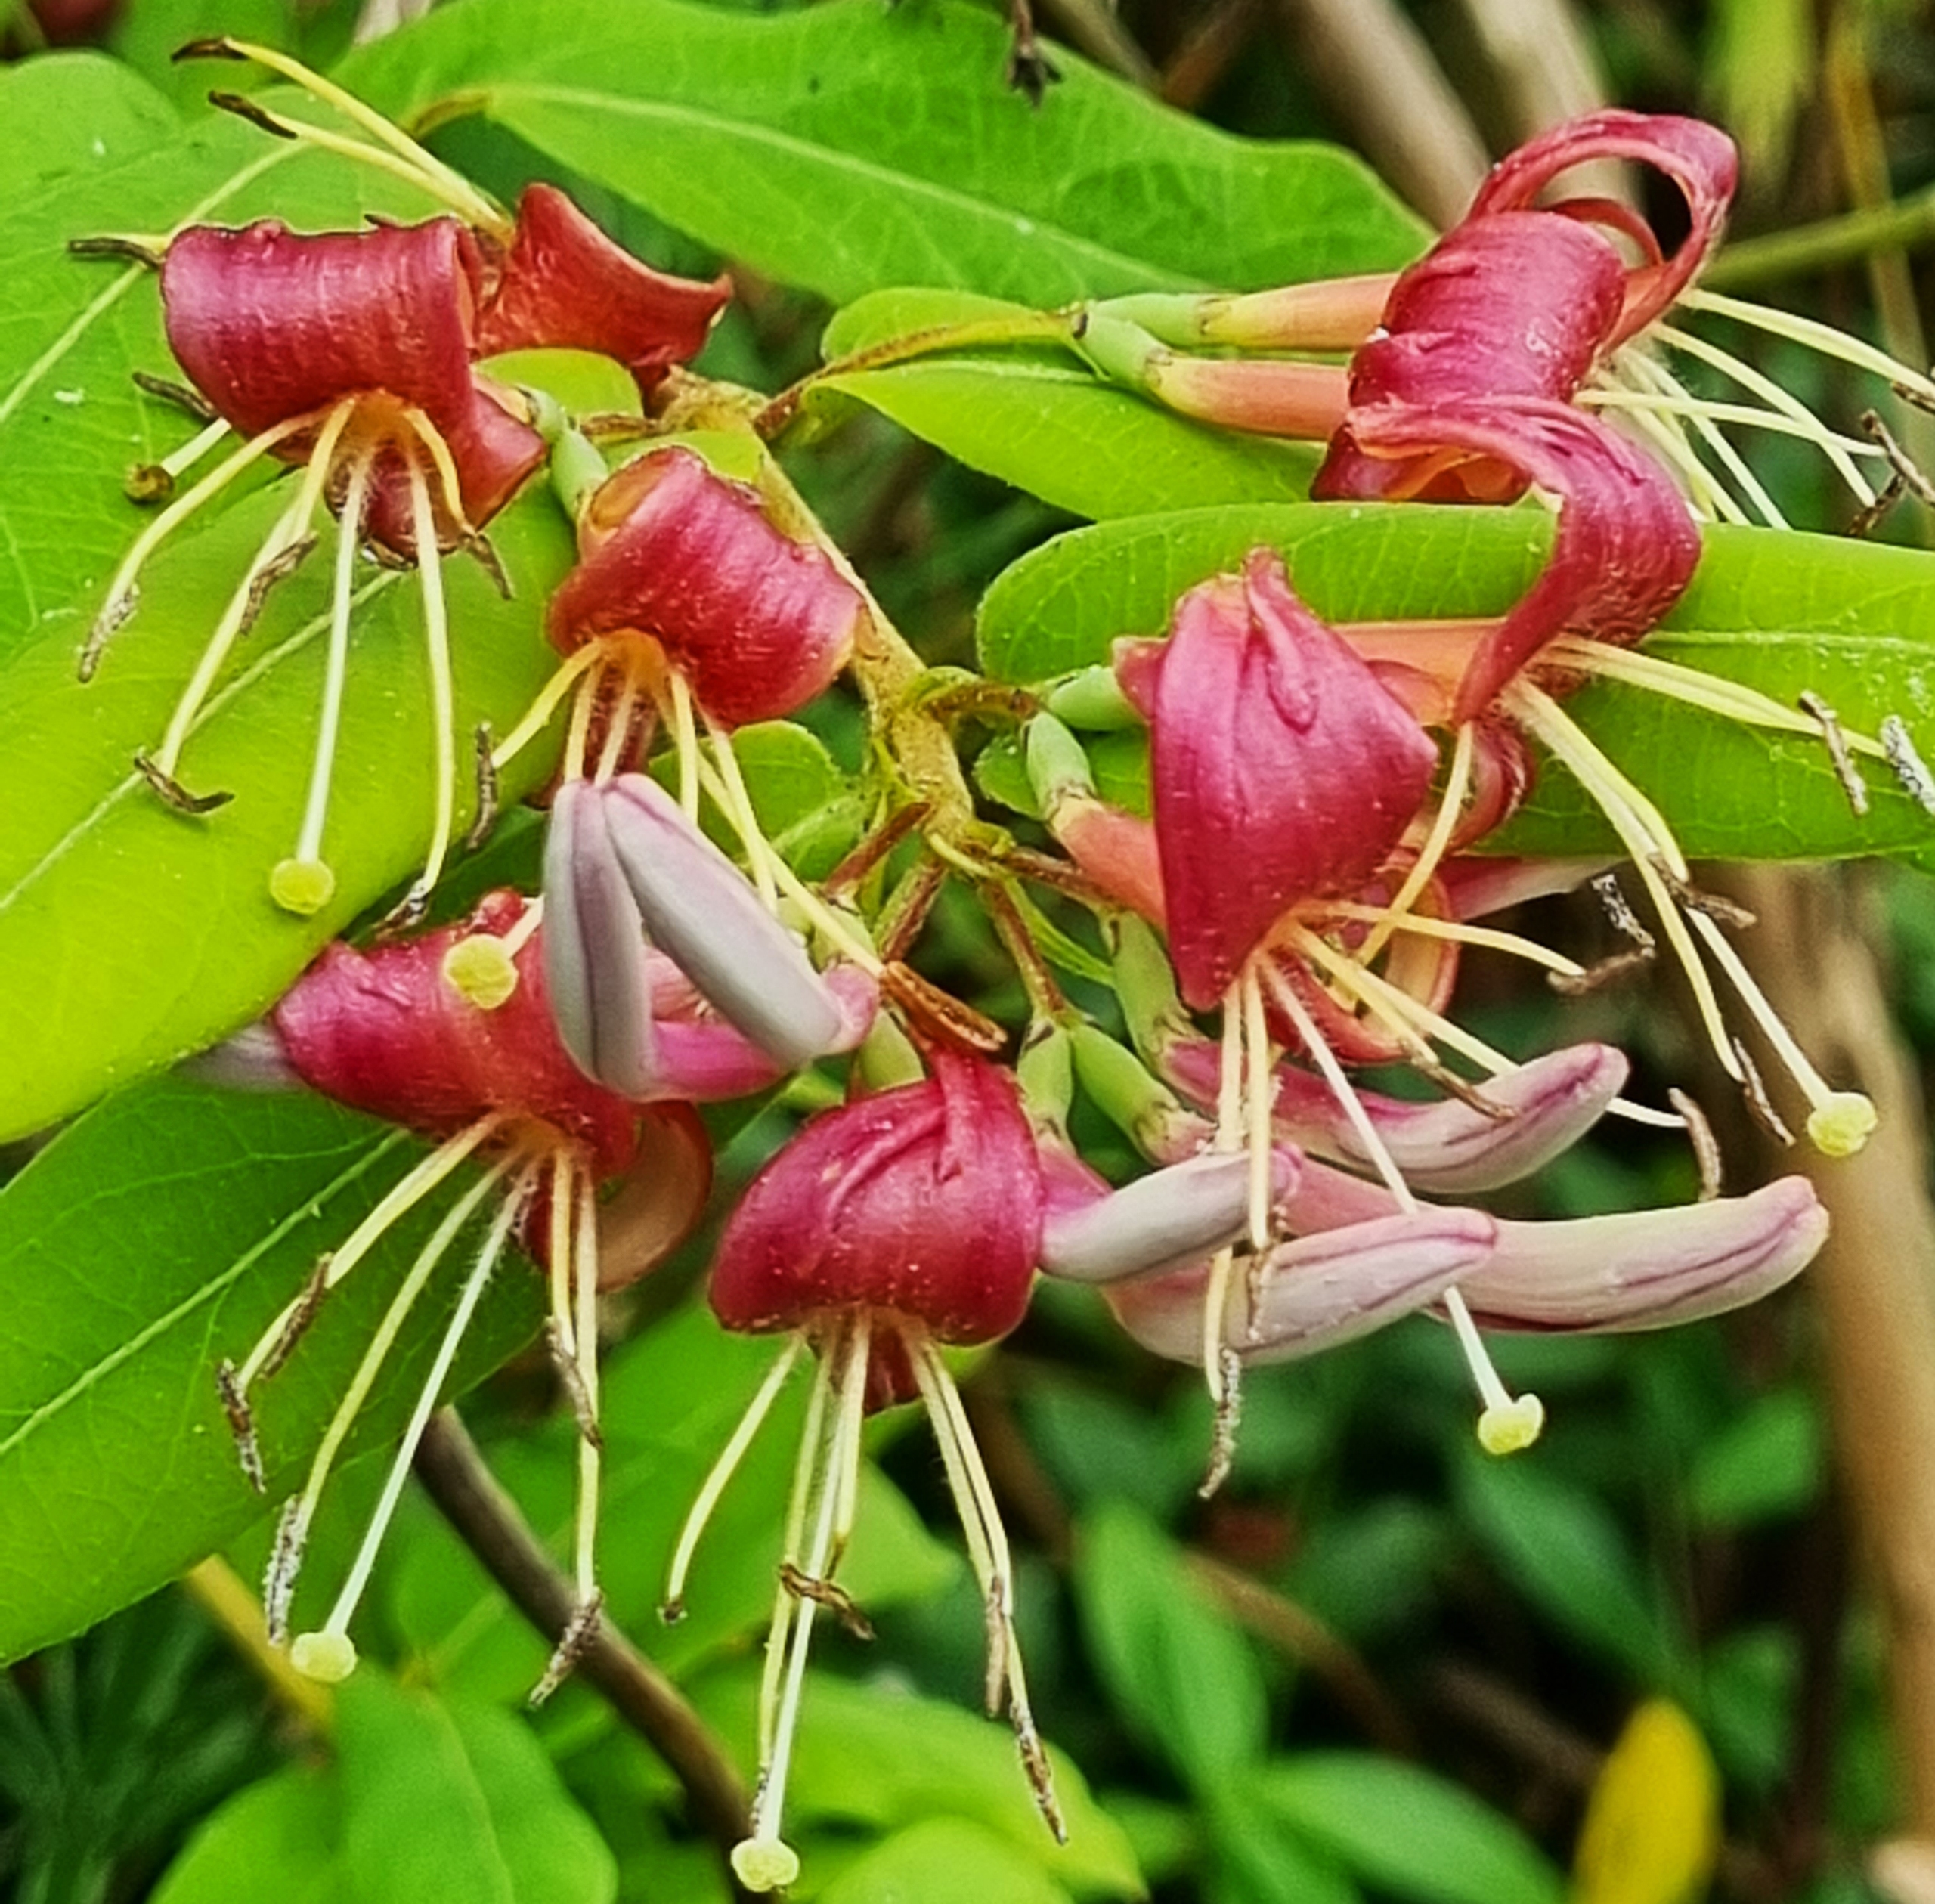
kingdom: Plantae
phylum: Tracheophyta
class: Magnoliopsida
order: Dipsacales
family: Caprifoliaceae
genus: Lonicera
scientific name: Lonicera acuminata
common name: Henrys gedeblad
